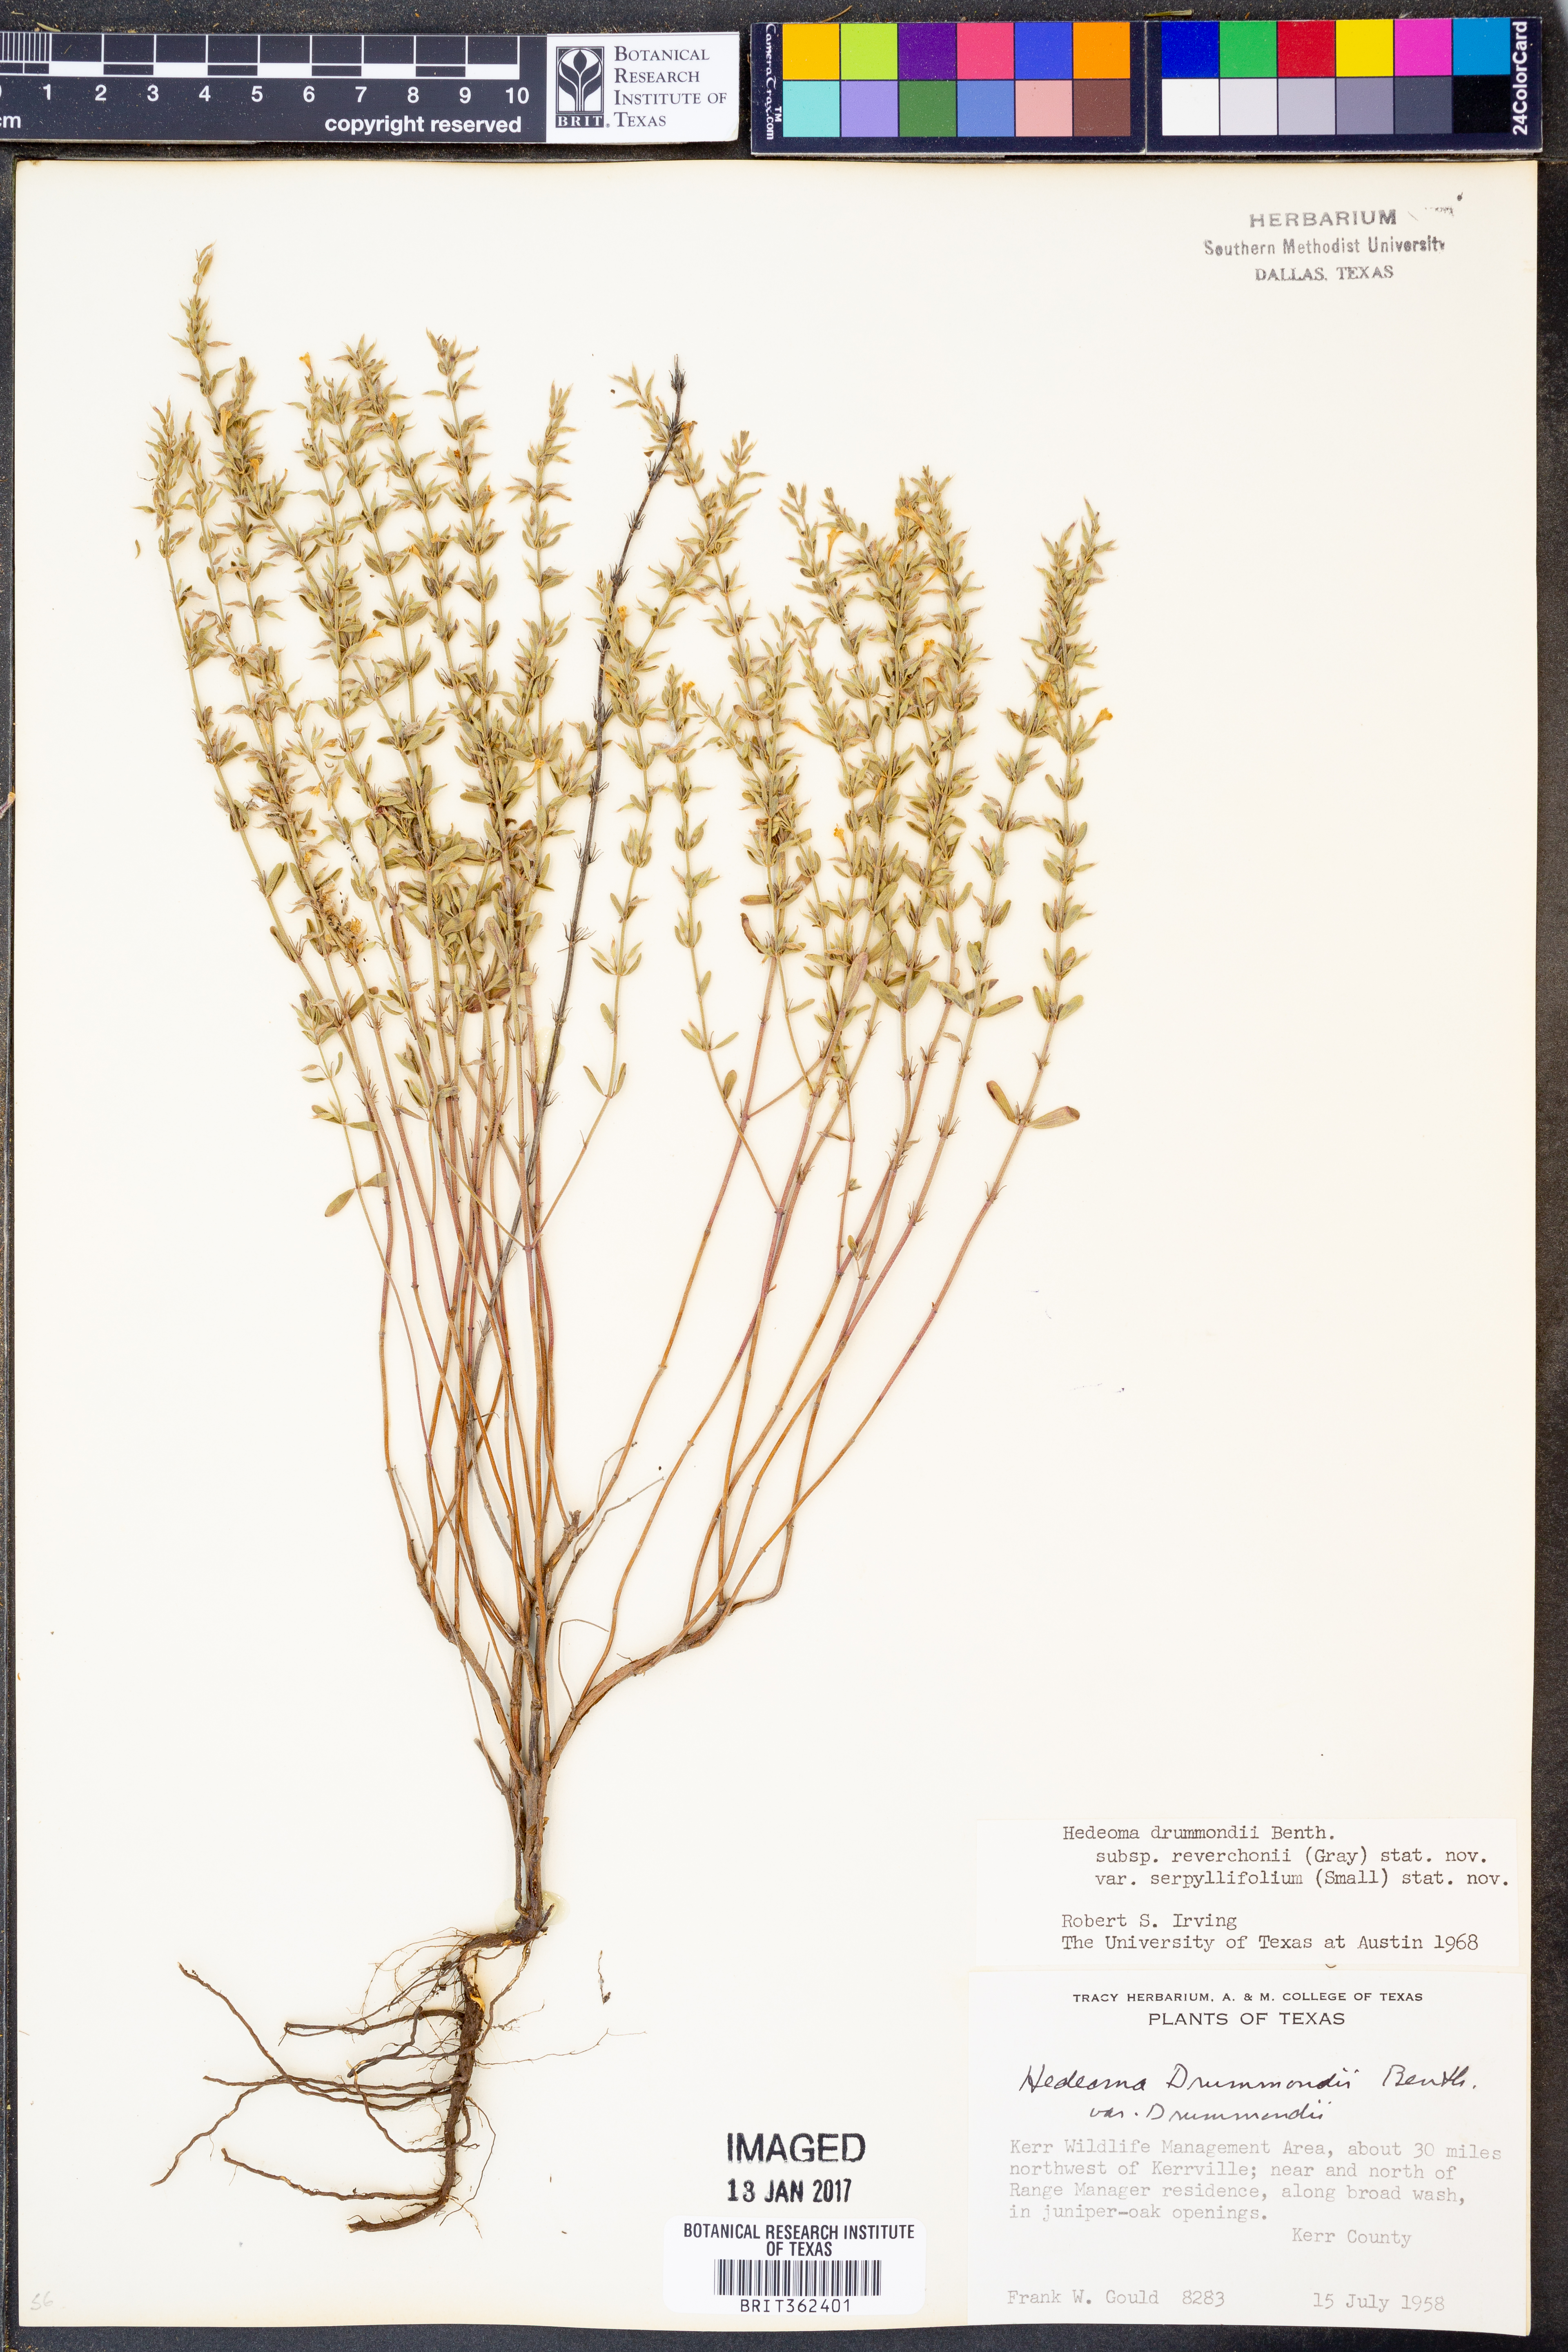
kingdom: Plantae
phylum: Tracheophyta
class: Magnoliopsida
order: Lamiales
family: Lamiaceae
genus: Hedeoma
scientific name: Hedeoma reverchonii
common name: Reverchon's false penny-royal
